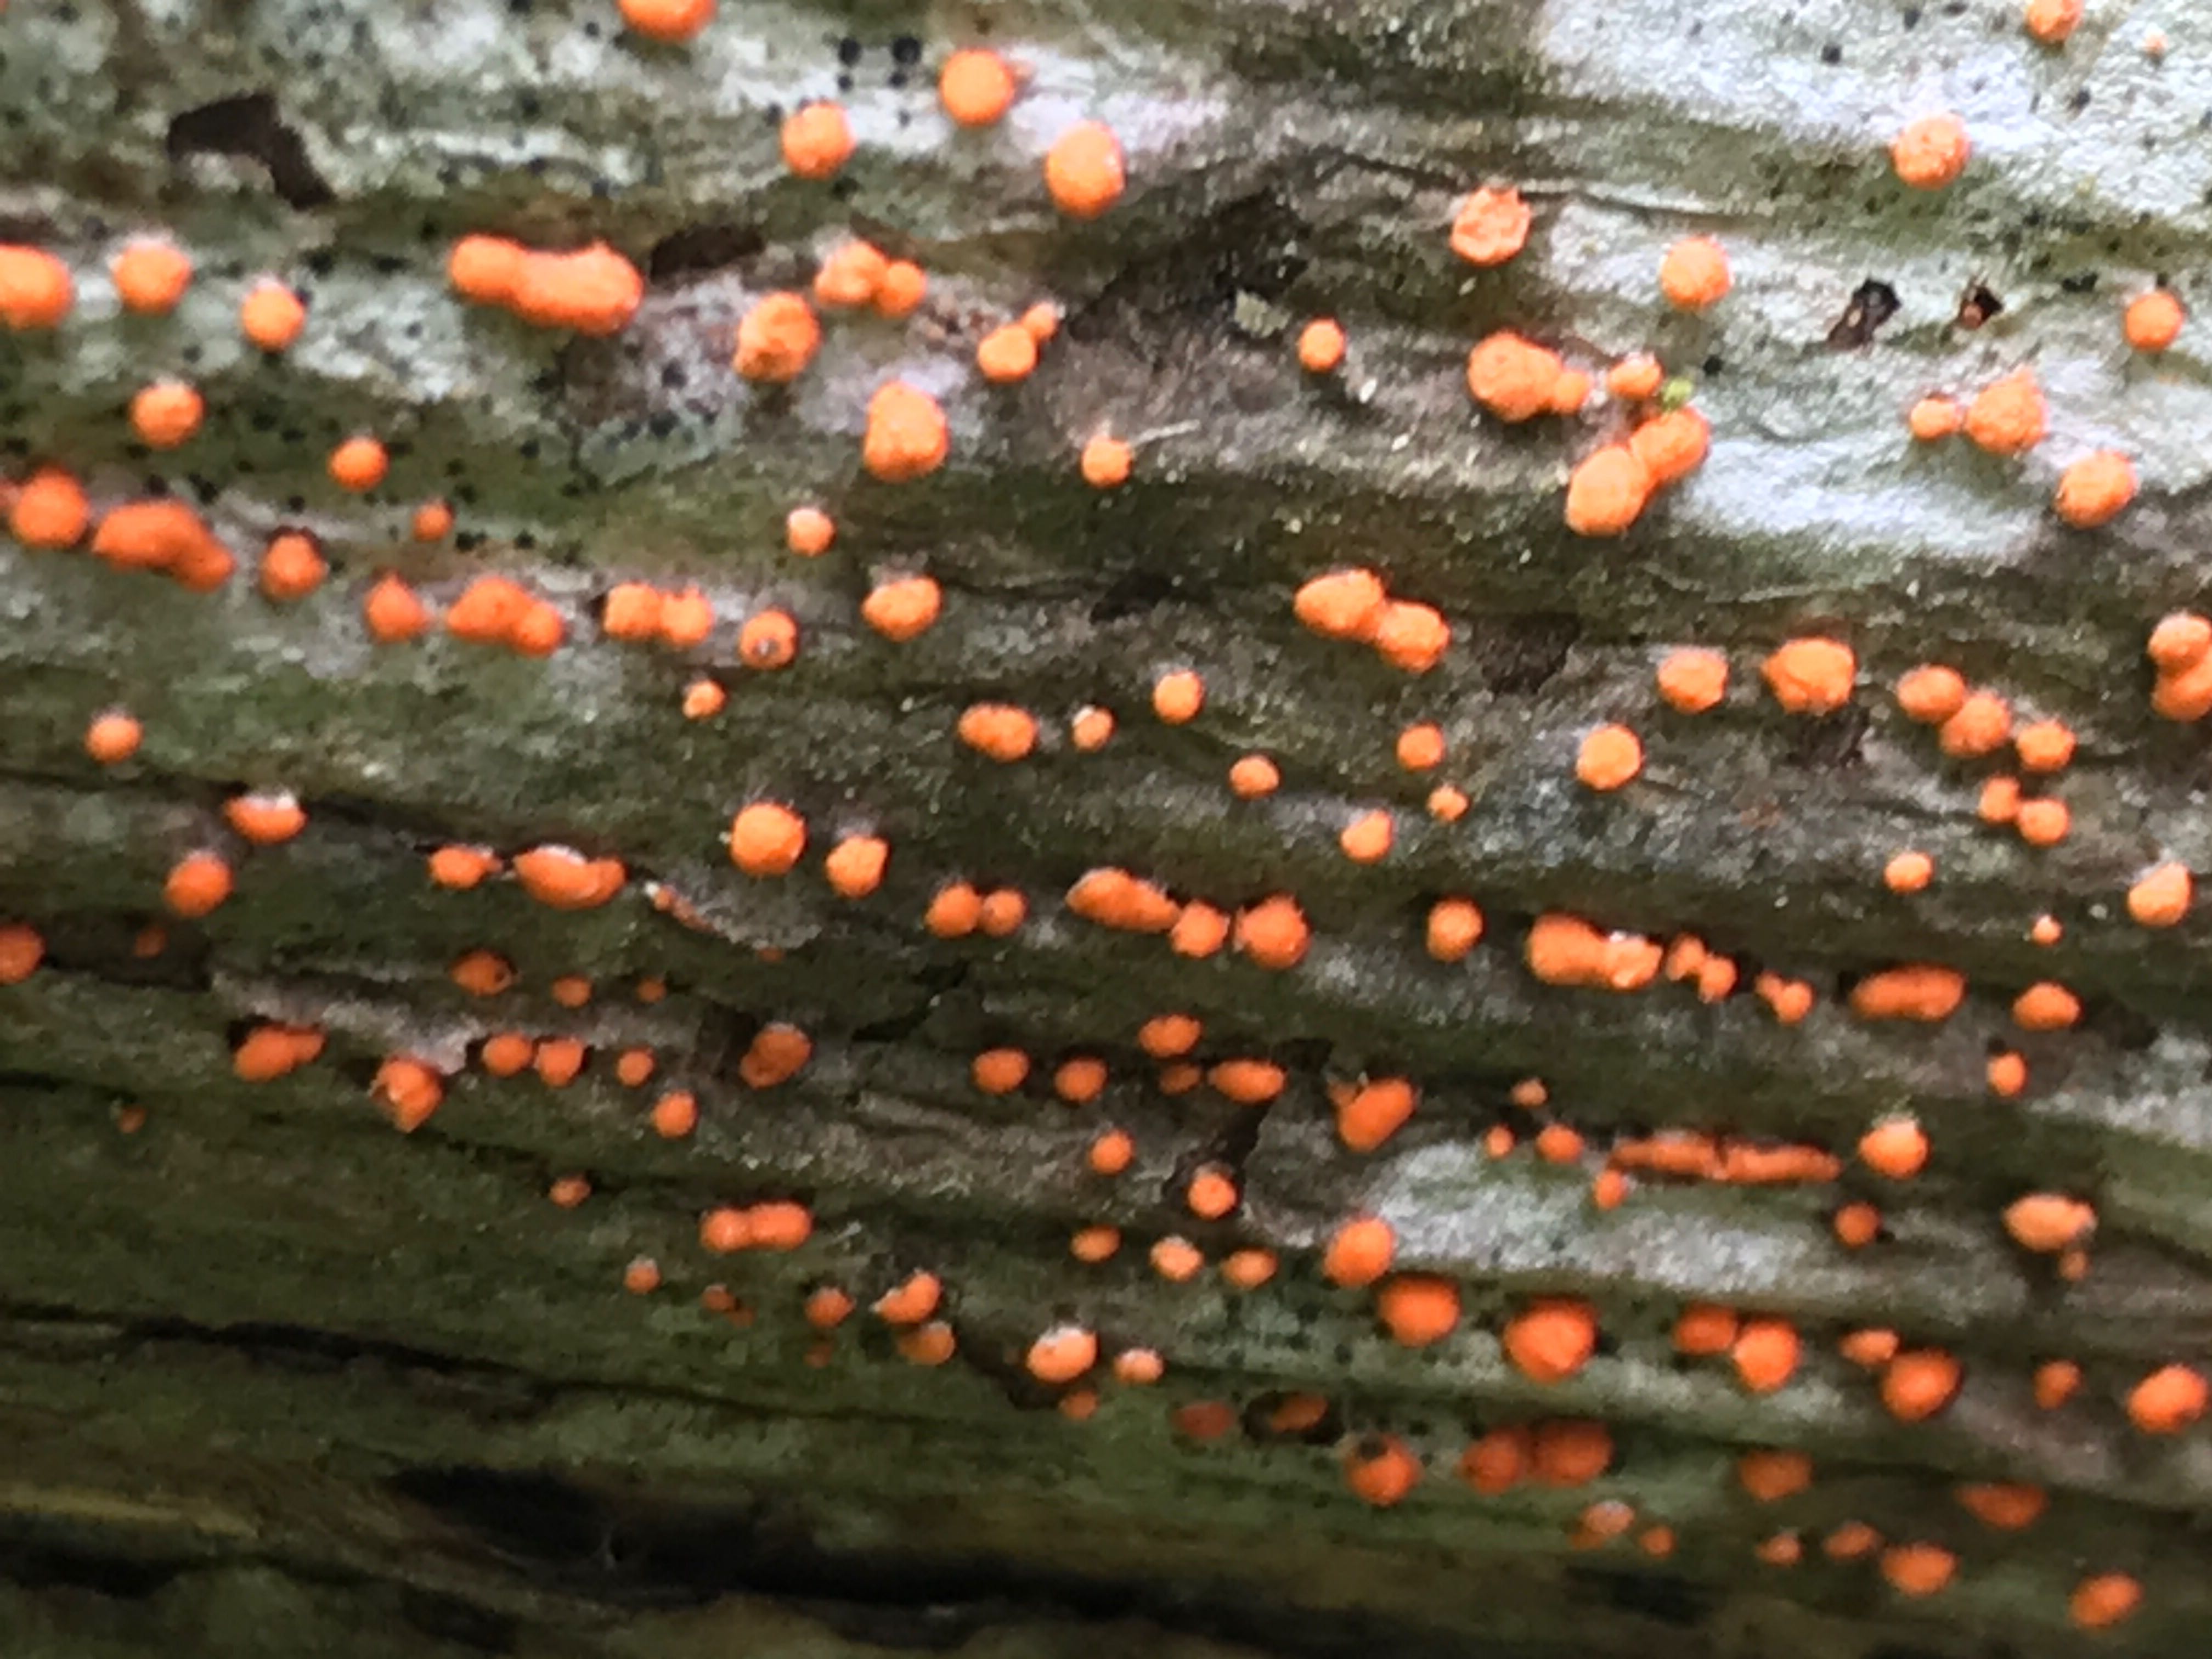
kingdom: Fungi
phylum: Ascomycota
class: Sordariomycetes
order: Hypocreales
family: Nectriaceae
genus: Nectria
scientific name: Nectria cinnabarina
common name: almindelig cinnobersvamp
